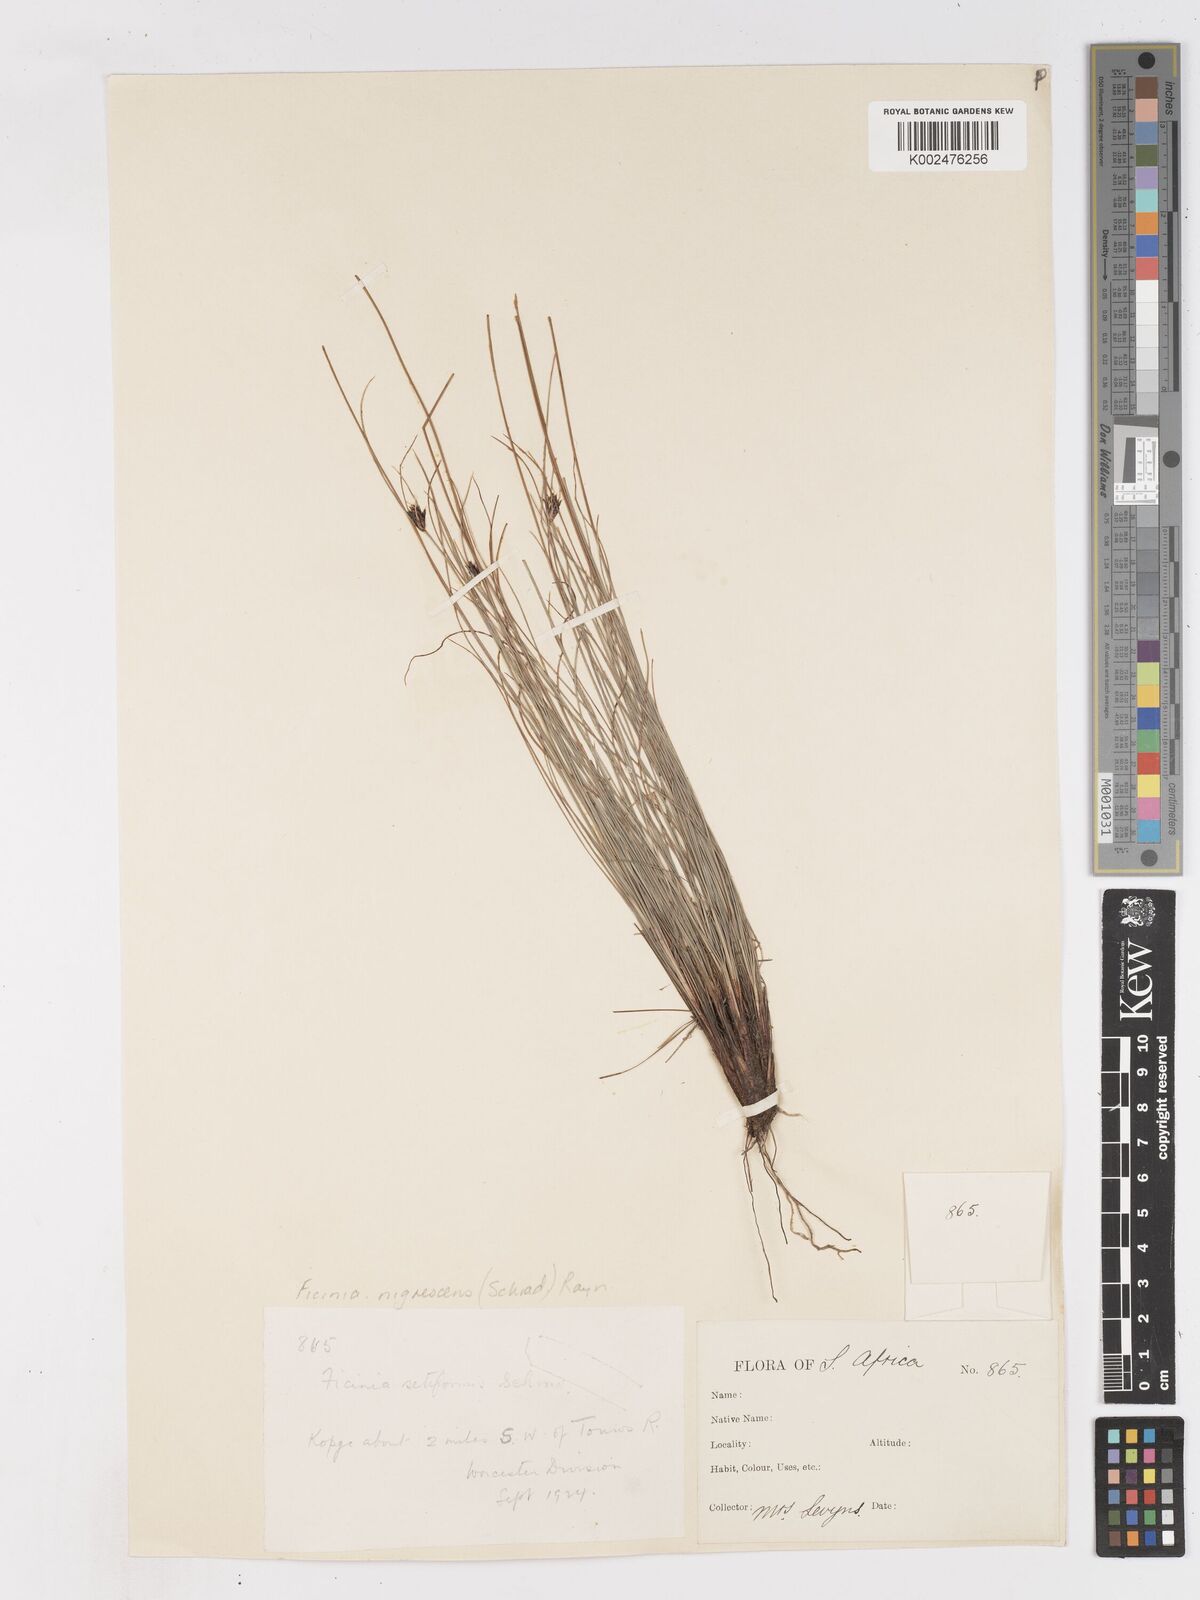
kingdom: Plantae
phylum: Tracheophyta
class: Liliopsida
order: Poales
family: Cyperaceae
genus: Ficinia
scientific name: Ficinia nigrescens
